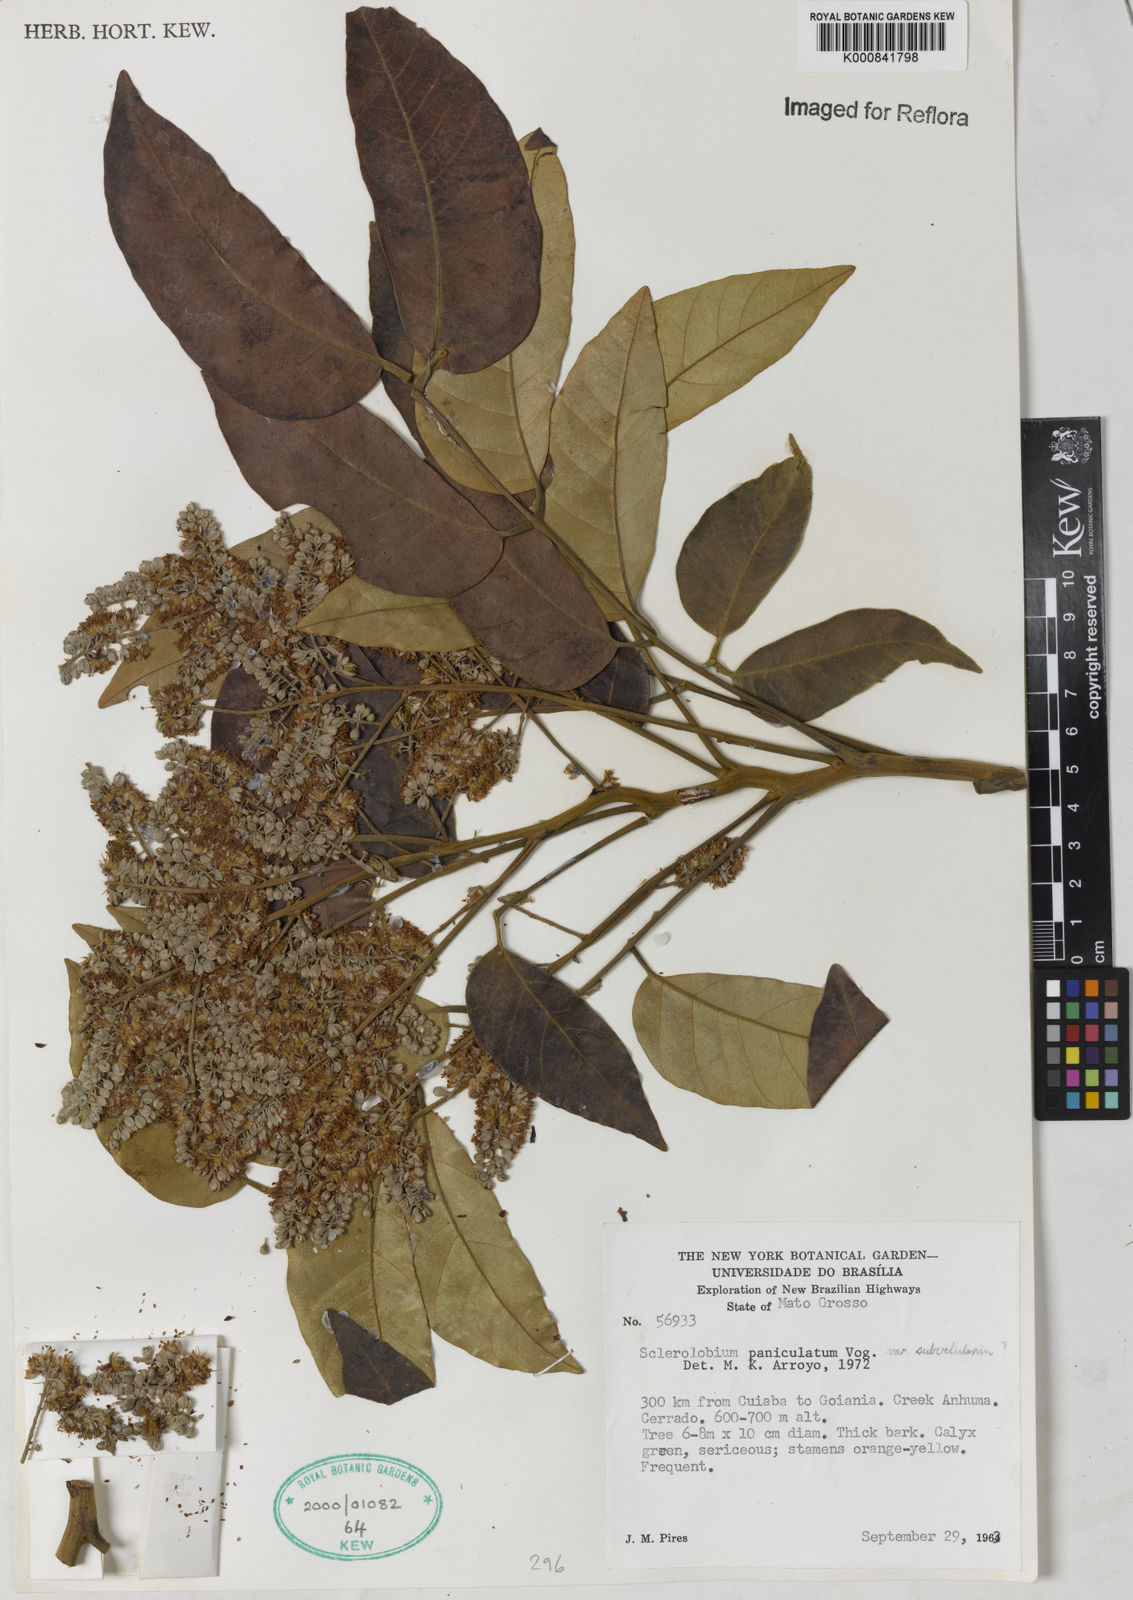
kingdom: Plantae
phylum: Tracheophyta
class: Magnoliopsida
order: Fabales
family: Fabaceae
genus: Tachigali
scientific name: Tachigali subvelutina
